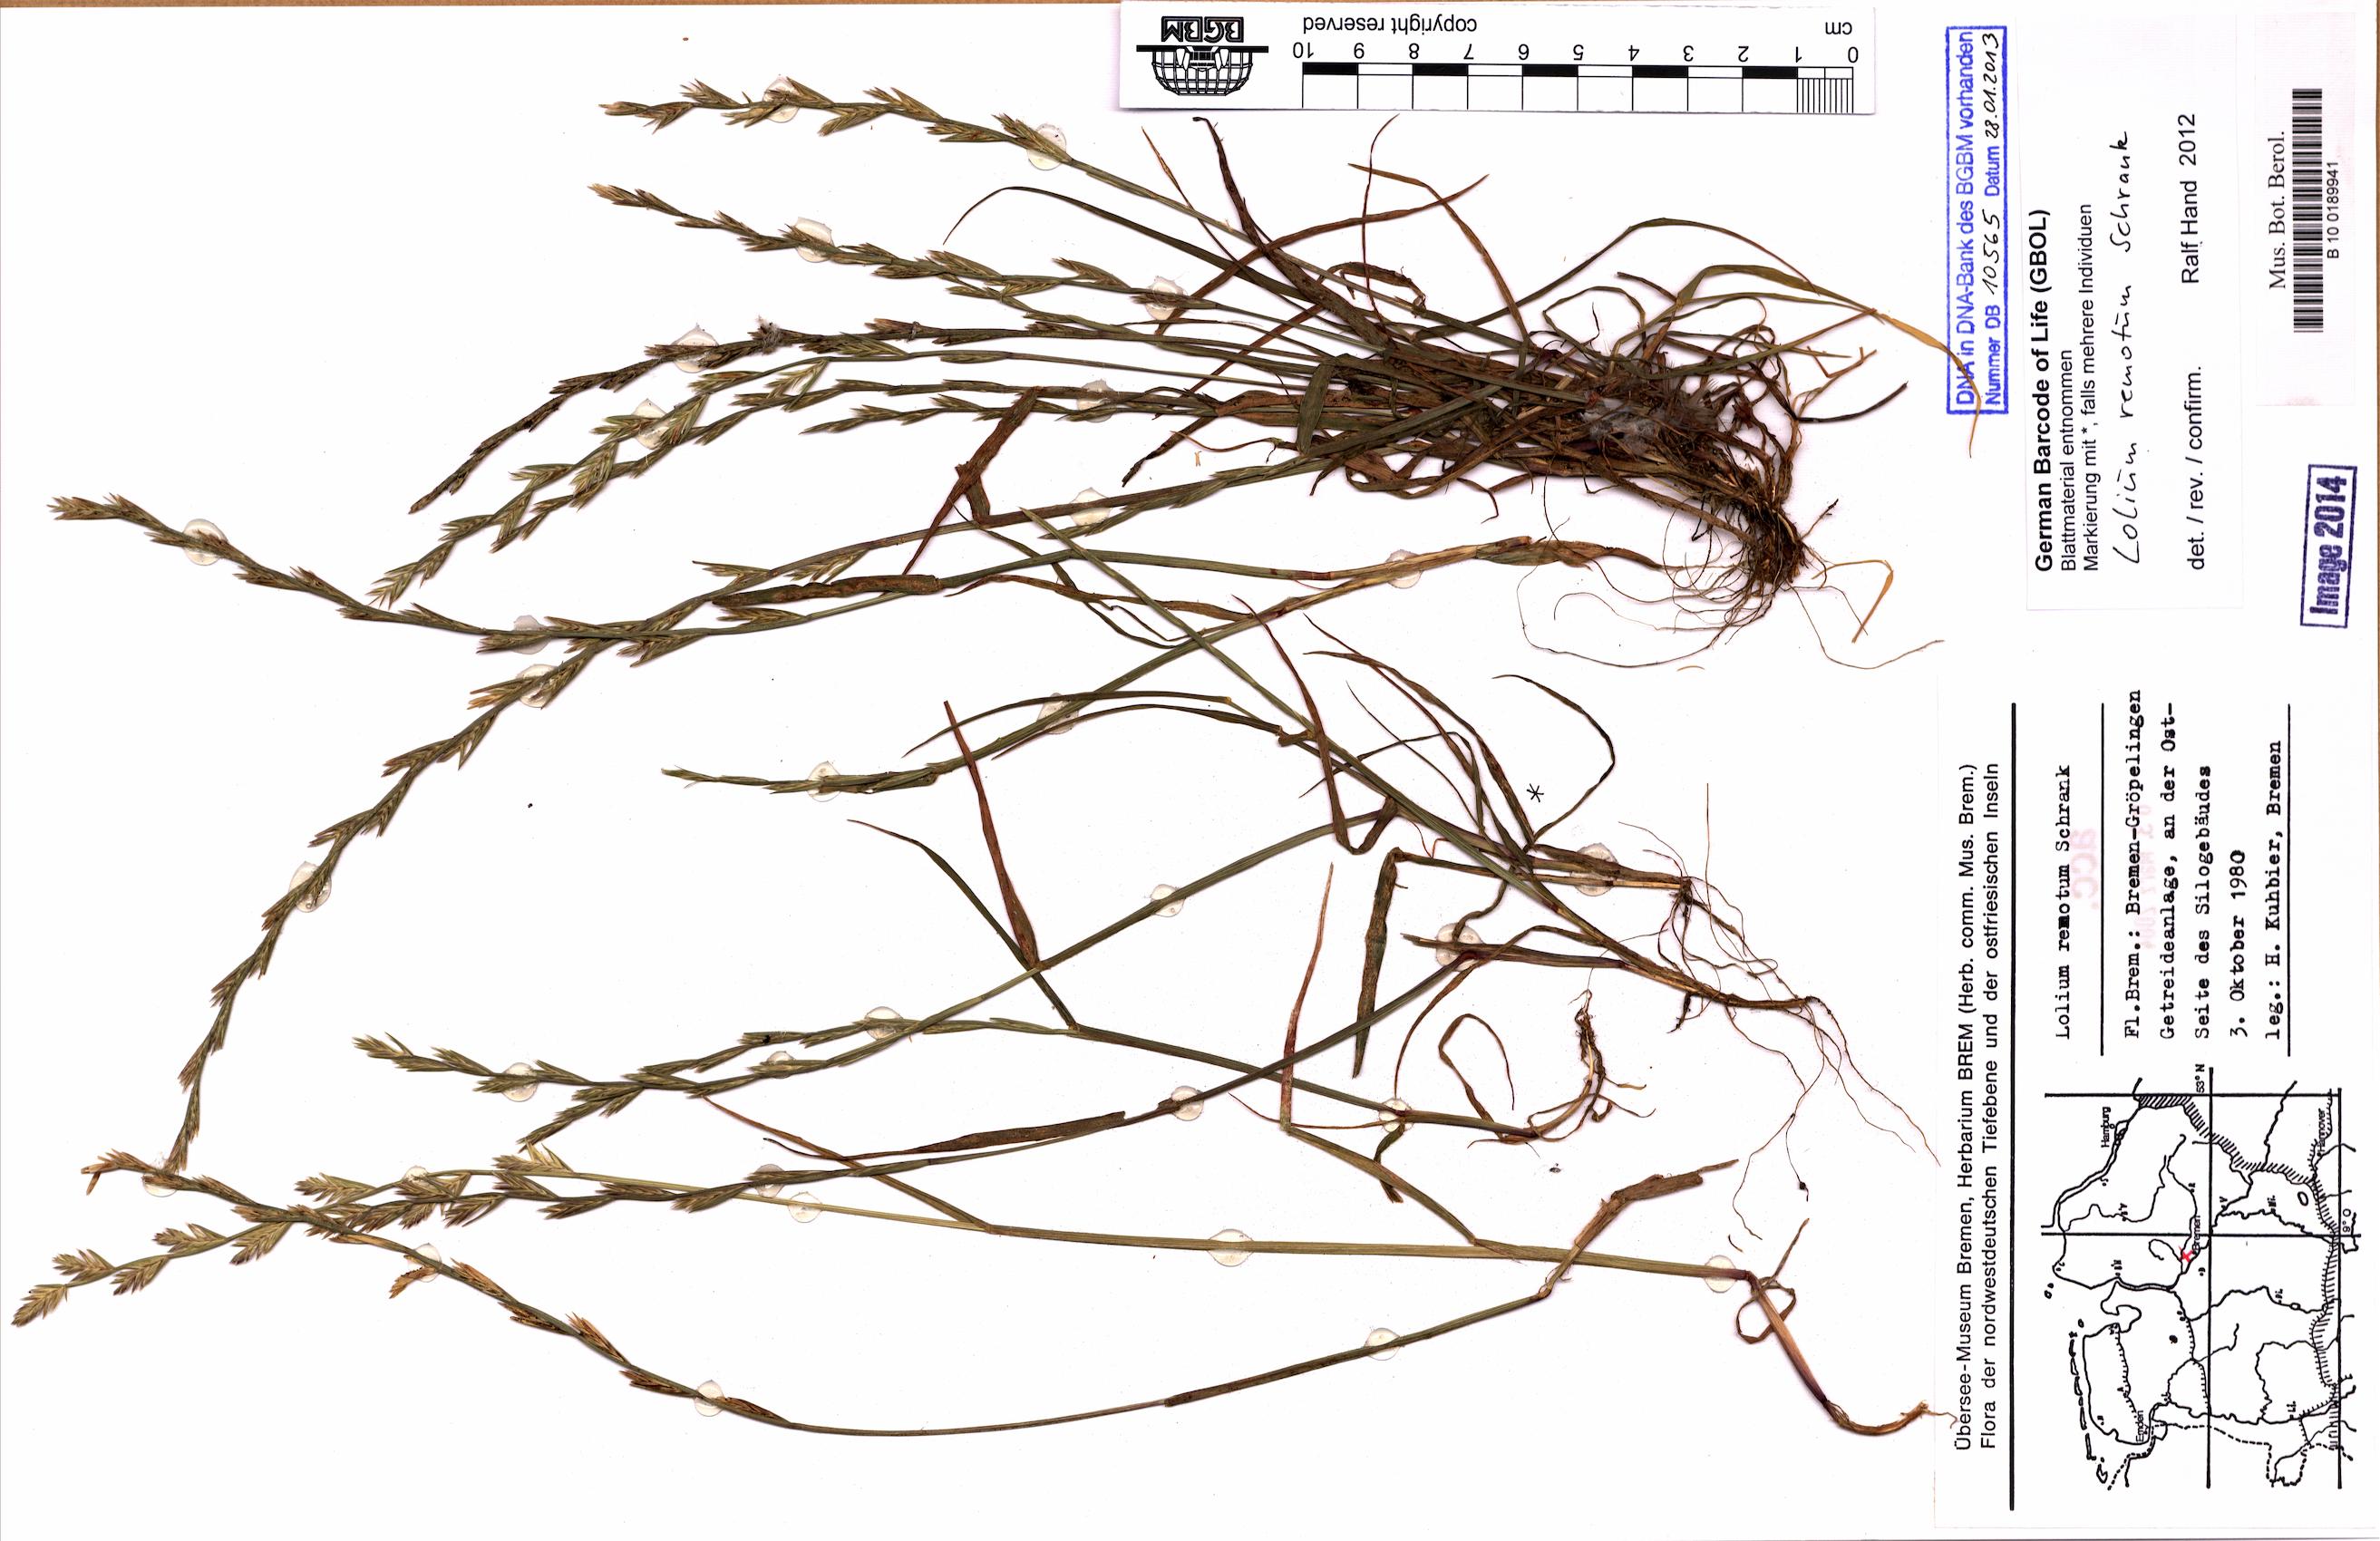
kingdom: Plantae
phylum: Tracheophyta
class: Liliopsida
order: Poales
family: Poaceae
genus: Lolium
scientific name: Lolium remotum
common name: Flaxfield rye-grass
